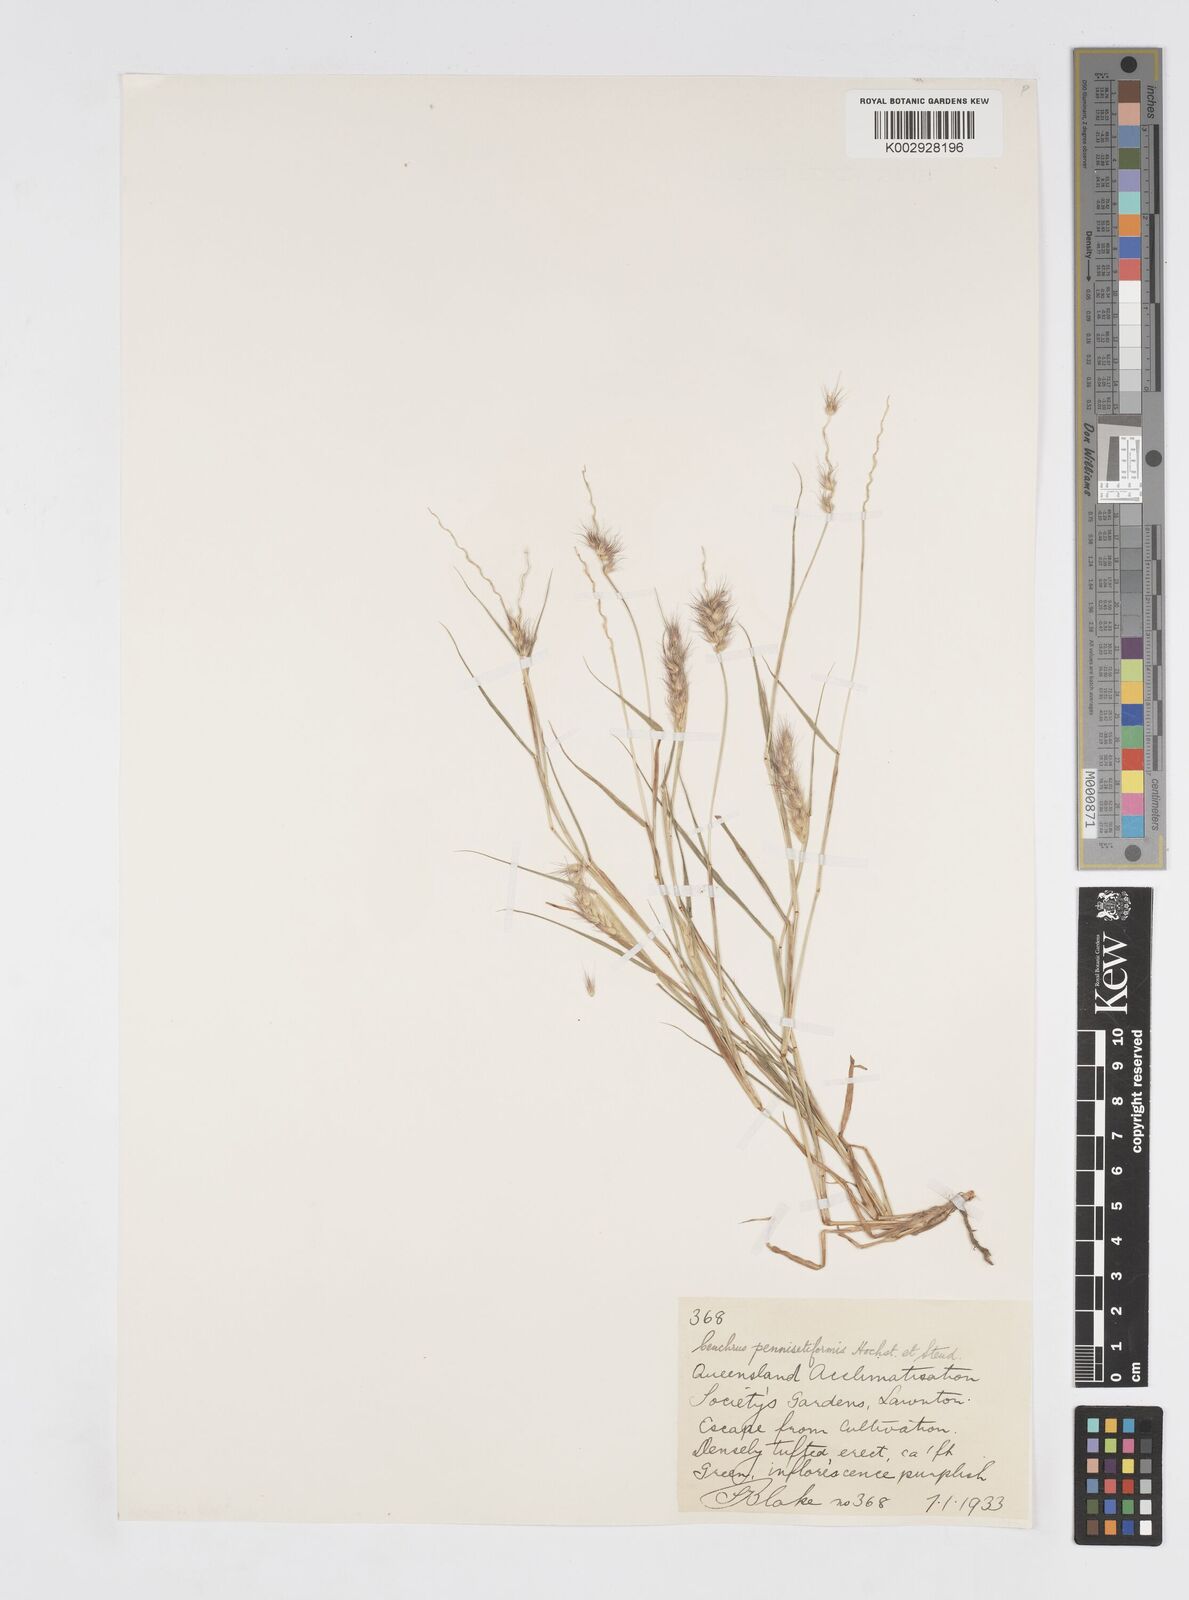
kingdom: Plantae
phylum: Tracheophyta
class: Liliopsida
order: Poales
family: Poaceae
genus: Cenchrus
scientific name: Cenchrus pennisetiformis
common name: Cloncurry
